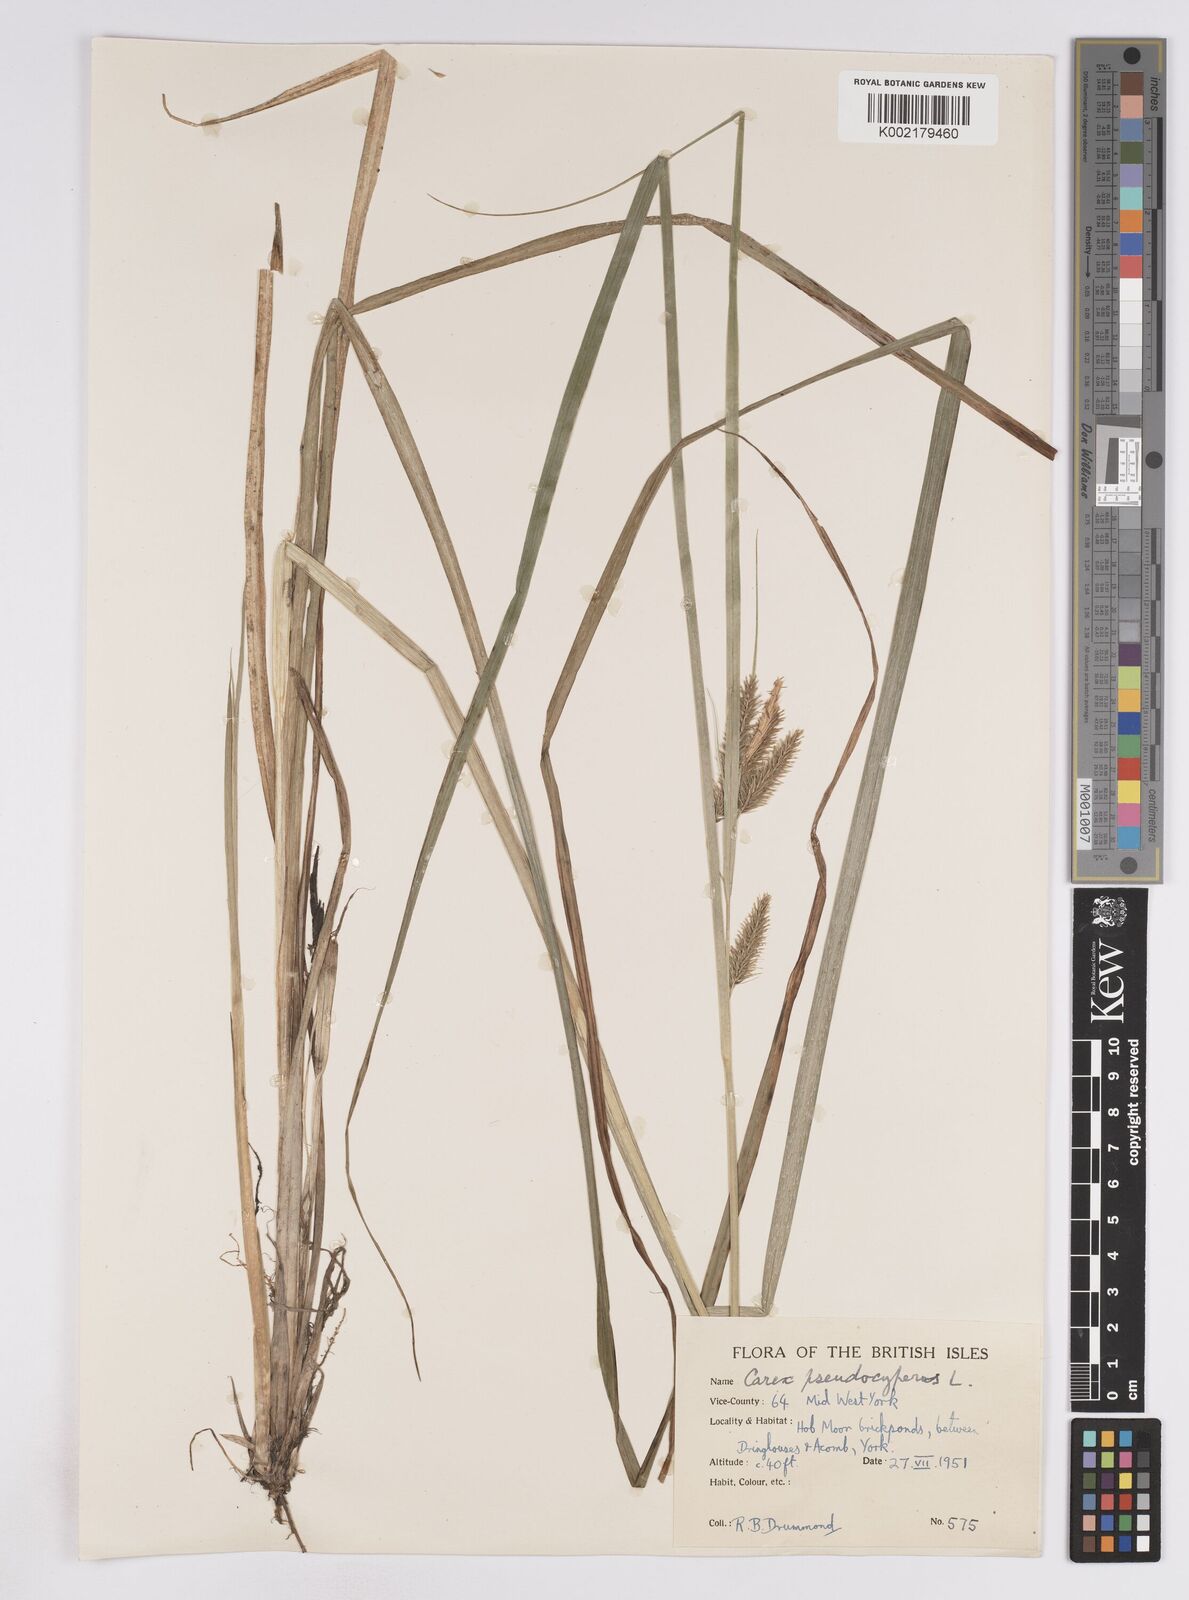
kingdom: Plantae
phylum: Tracheophyta
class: Liliopsida
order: Poales
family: Cyperaceae
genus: Carex
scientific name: Carex pseudocyperus
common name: Cyperus sedge
